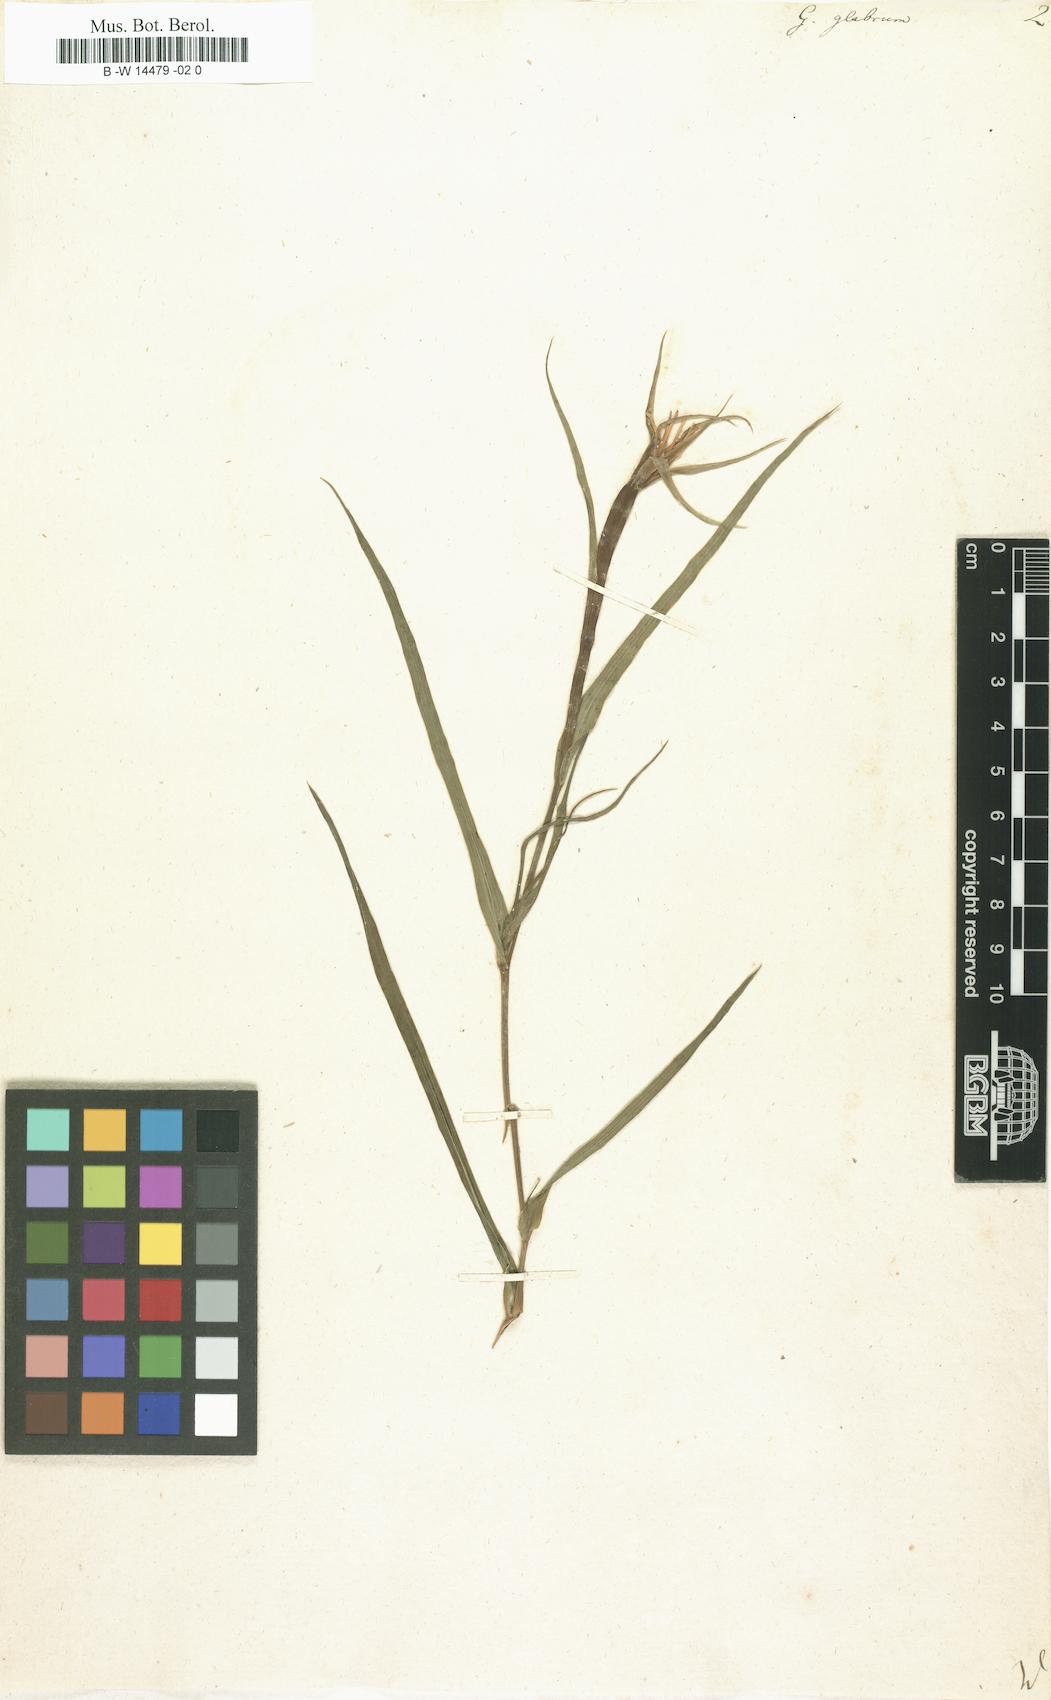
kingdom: Plantae
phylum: Tracheophyta
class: Magnoliopsida
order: Asterales
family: Asteraceae
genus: Geropogon
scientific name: Geropogon hybridus
